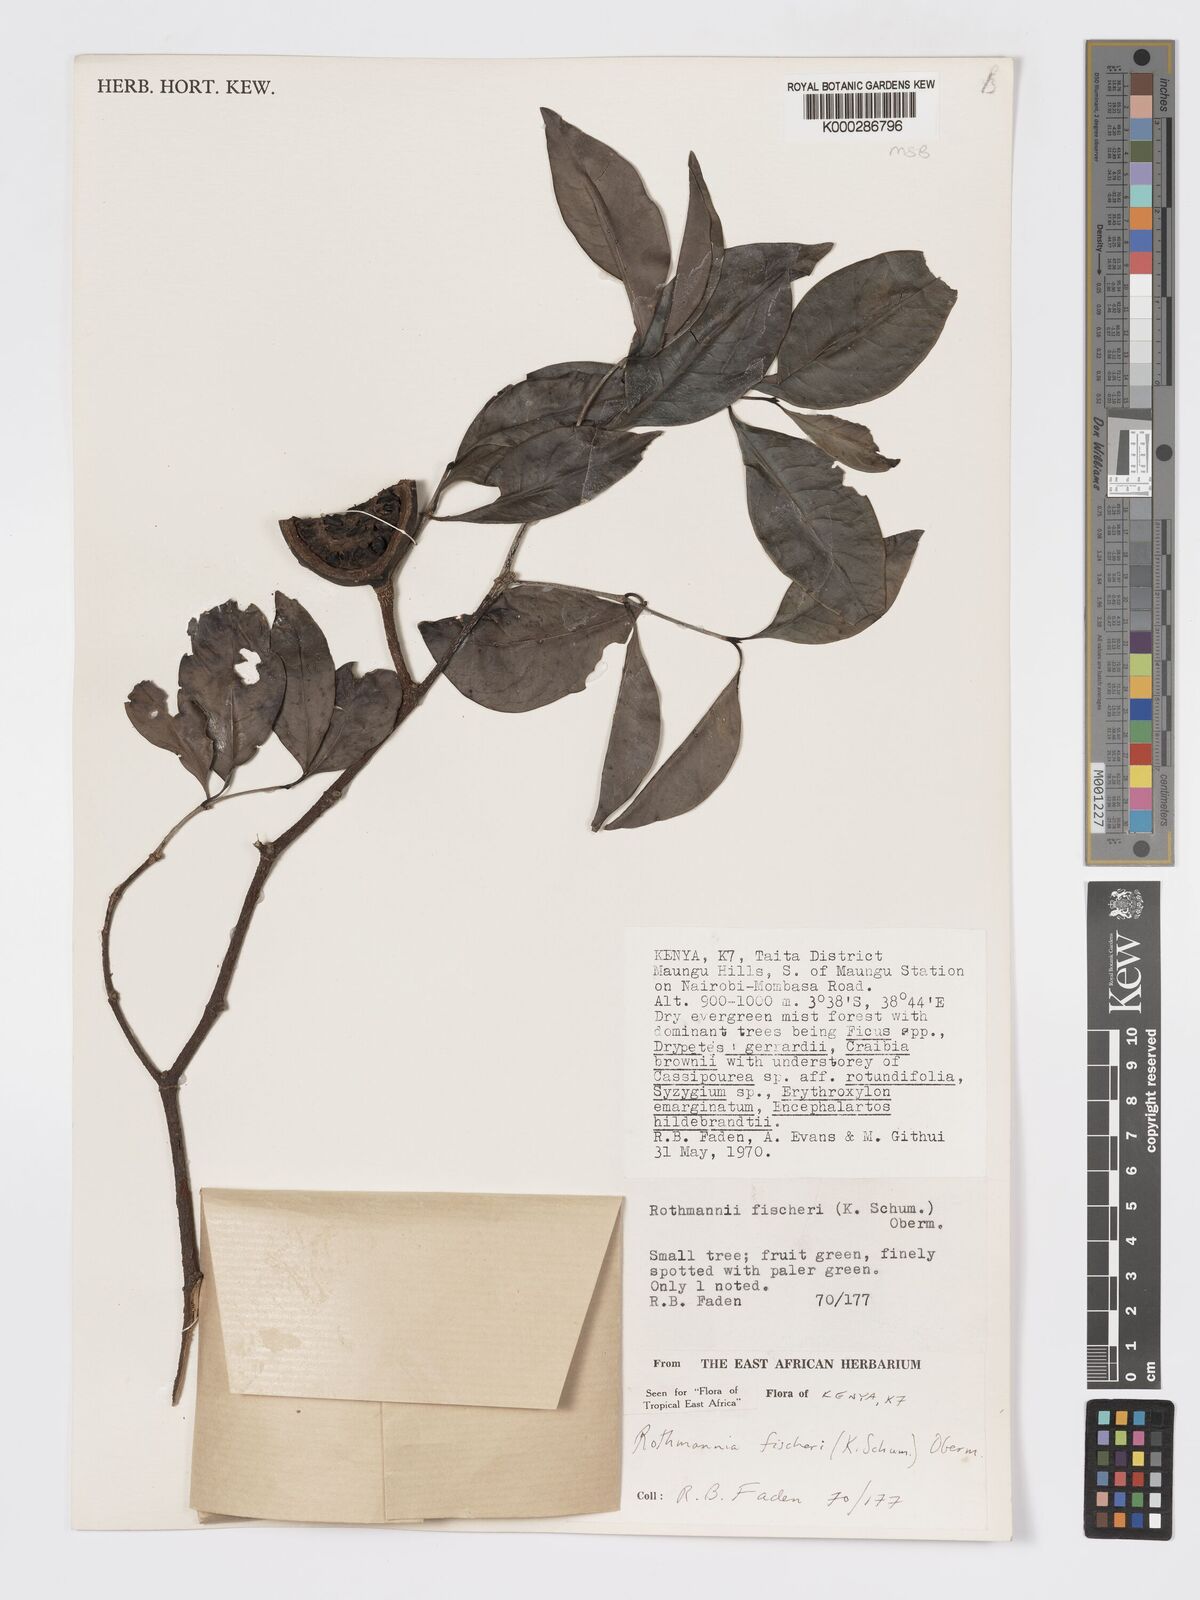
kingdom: Plantae
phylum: Tracheophyta
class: Magnoliopsida
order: Gentianales
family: Rubiaceae
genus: Rothmannia
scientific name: Rothmannia ravae
